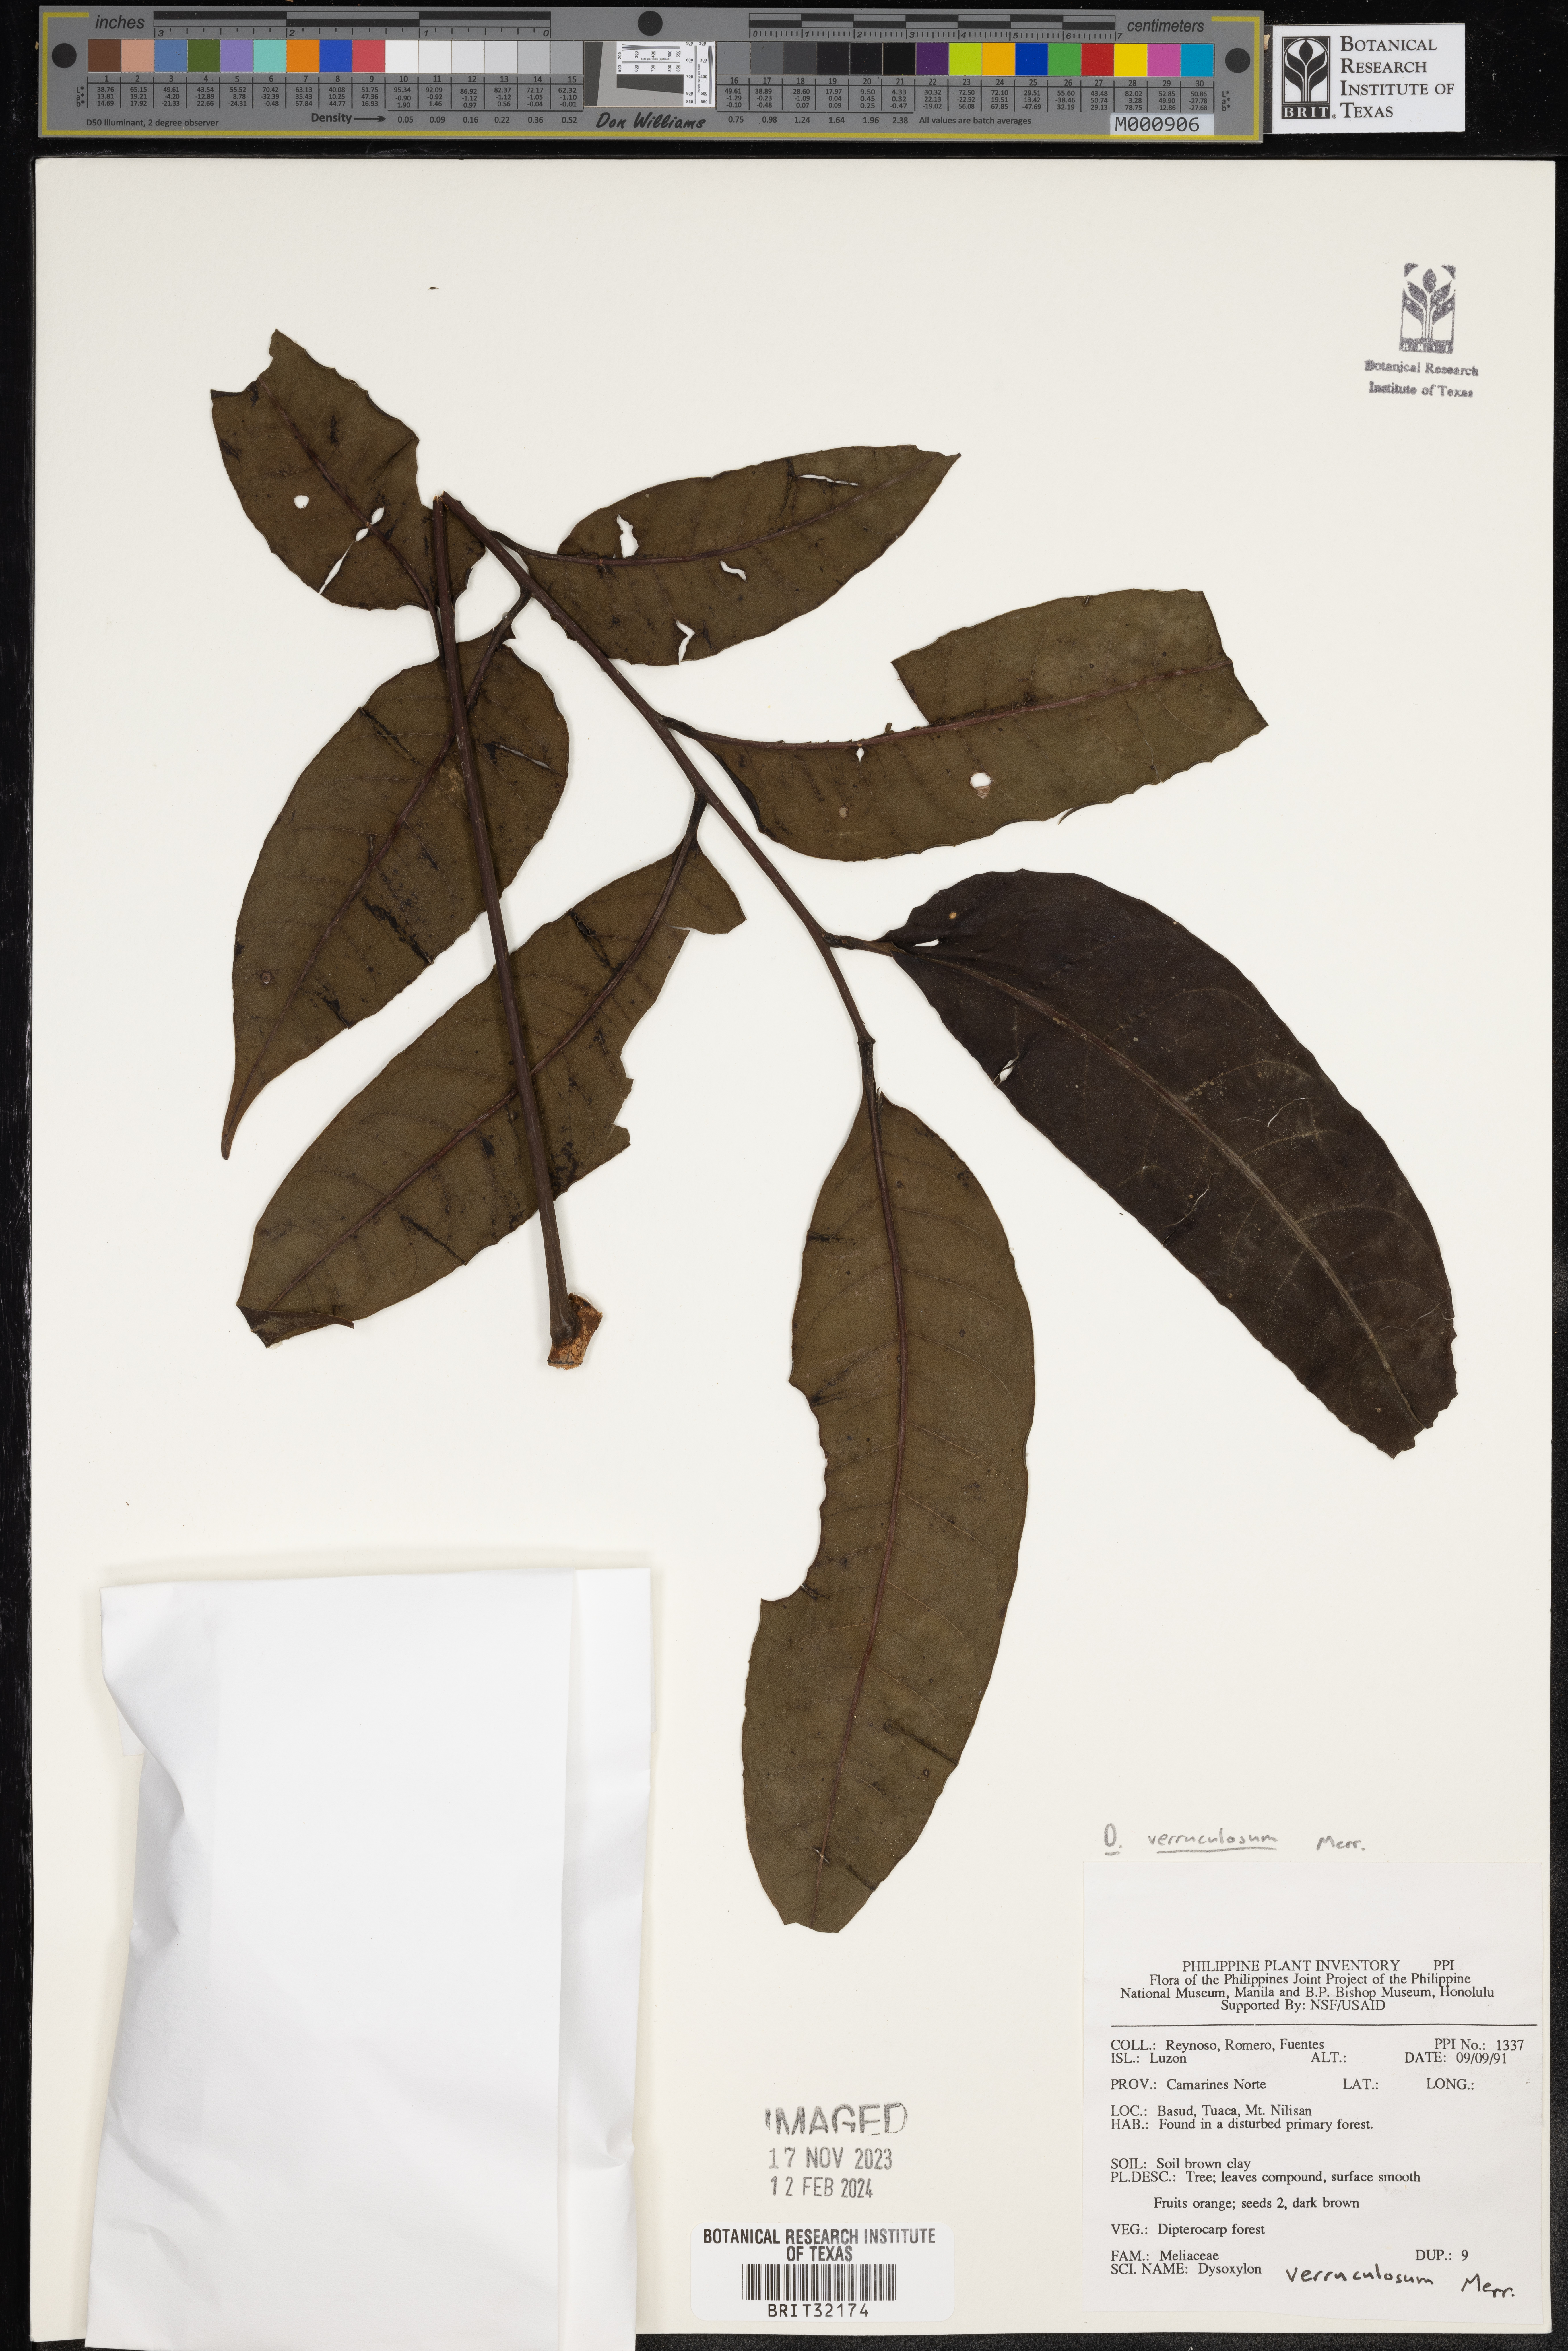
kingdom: Plantae
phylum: Tracheophyta
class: Magnoliopsida
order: Sapindales
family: Meliaceae
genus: Dysoxylum
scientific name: Dysoxylum
